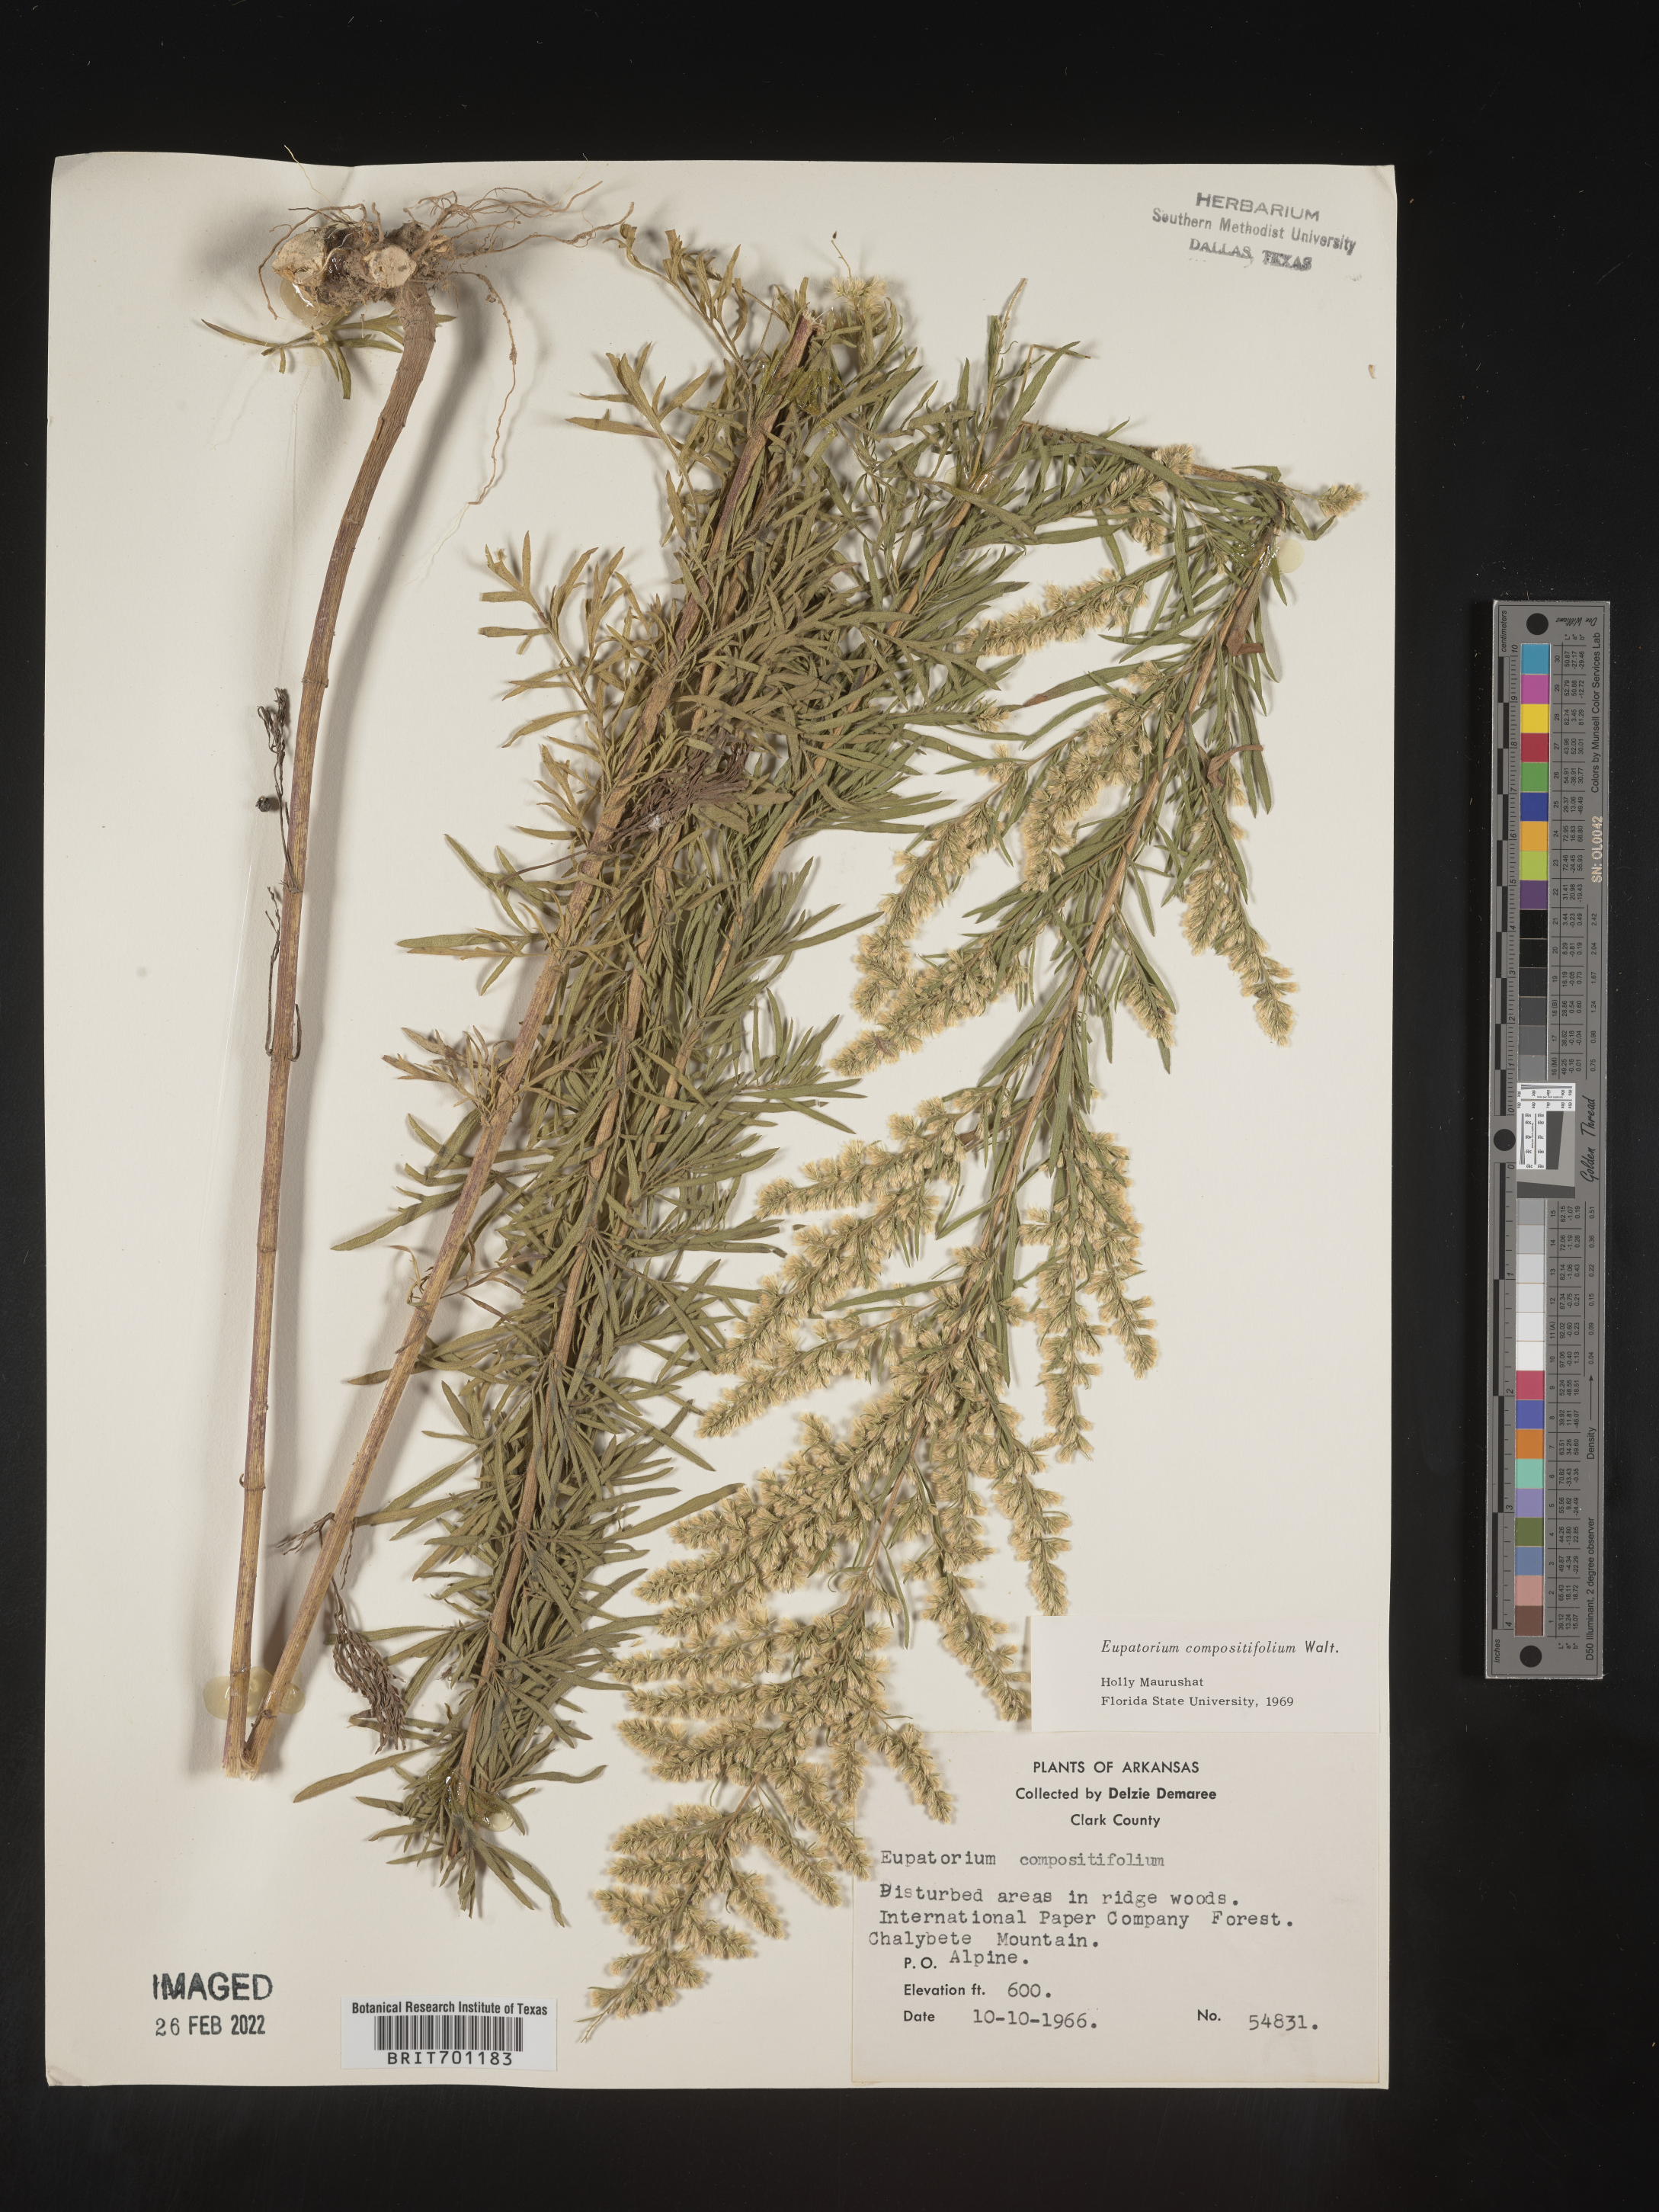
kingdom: Plantae
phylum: Tracheophyta
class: Magnoliopsida
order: Asterales
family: Asteraceae
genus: Eupatorium
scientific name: Eupatorium compositifolium
